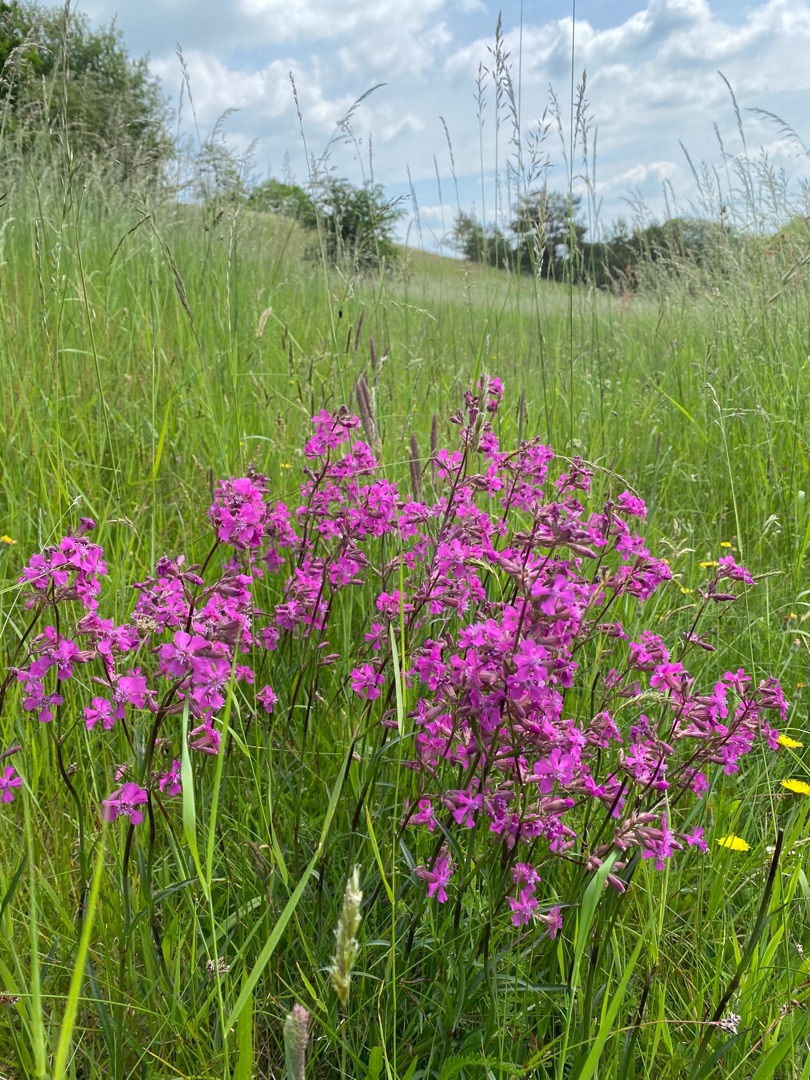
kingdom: Plantae
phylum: Tracheophyta
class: Magnoliopsida
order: Caryophyllales
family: Caryophyllaceae
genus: Viscaria
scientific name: Viscaria vulgaris
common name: Tjærenellike
